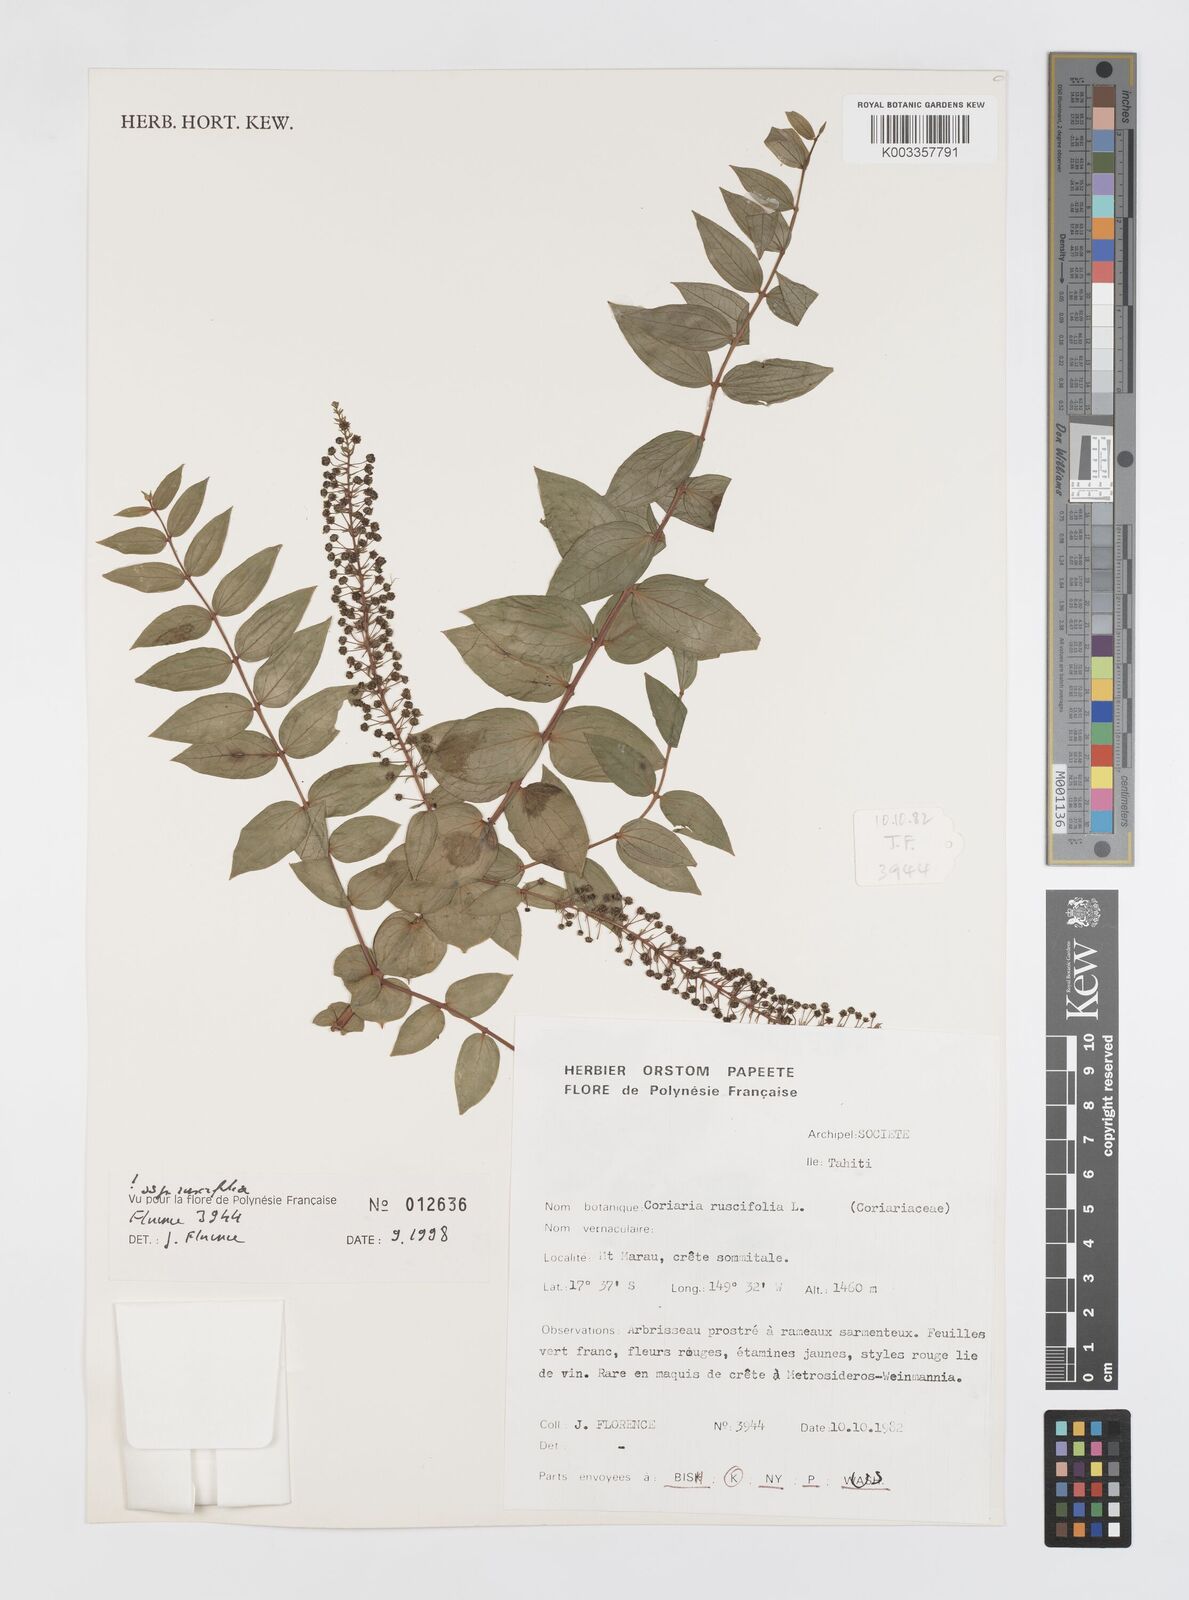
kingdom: Plantae
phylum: Tracheophyta
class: Magnoliopsida
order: Cucurbitales
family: Coriariaceae
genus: Coriaria
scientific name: Coriaria ruscifolia
